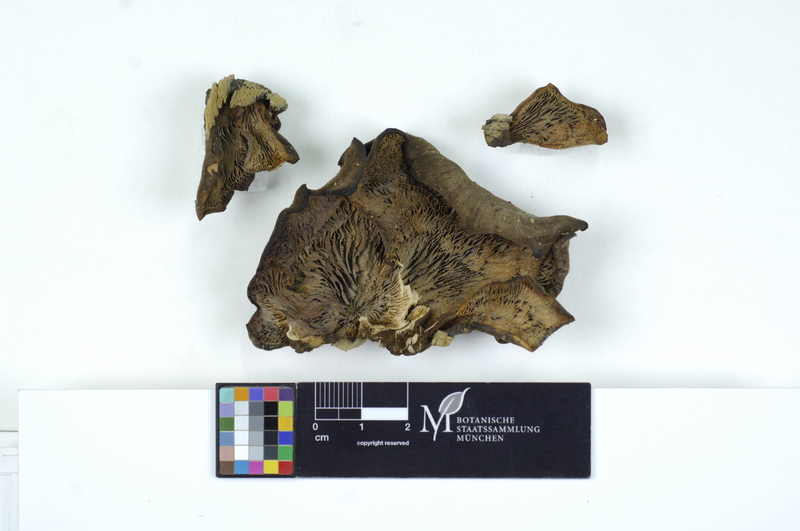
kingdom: Fungi
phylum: Basidiomycota
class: Agaricomycetes
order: Russulales
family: Auriscalpiaceae
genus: Lentinellus
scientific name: Lentinellus ursinus
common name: Bear lentinus
